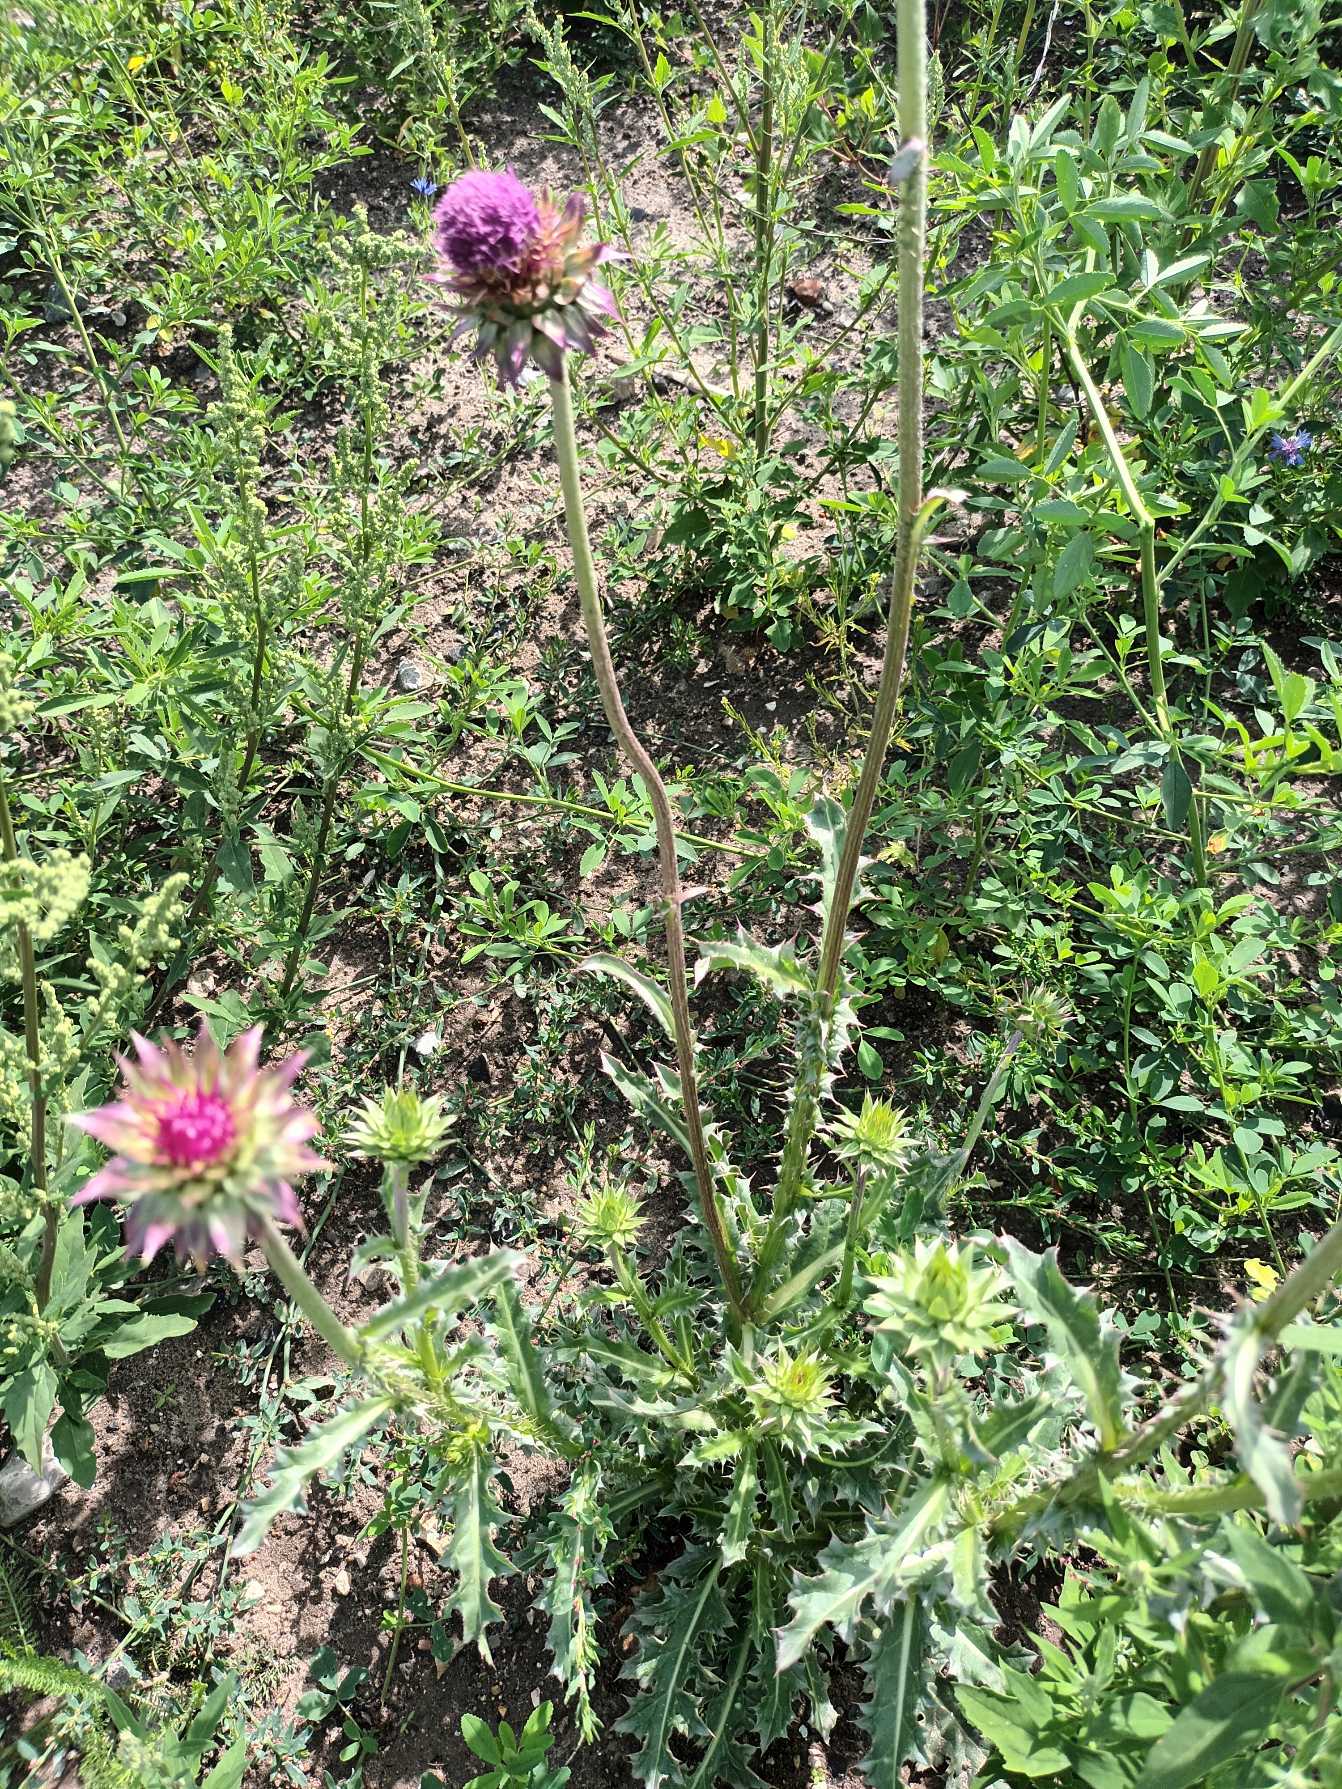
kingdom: Plantae
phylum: Tracheophyta
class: Magnoliopsida
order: Asterales
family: Asteraceae
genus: Carduus
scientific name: Carduus nutans
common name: Olymp-tidsel
